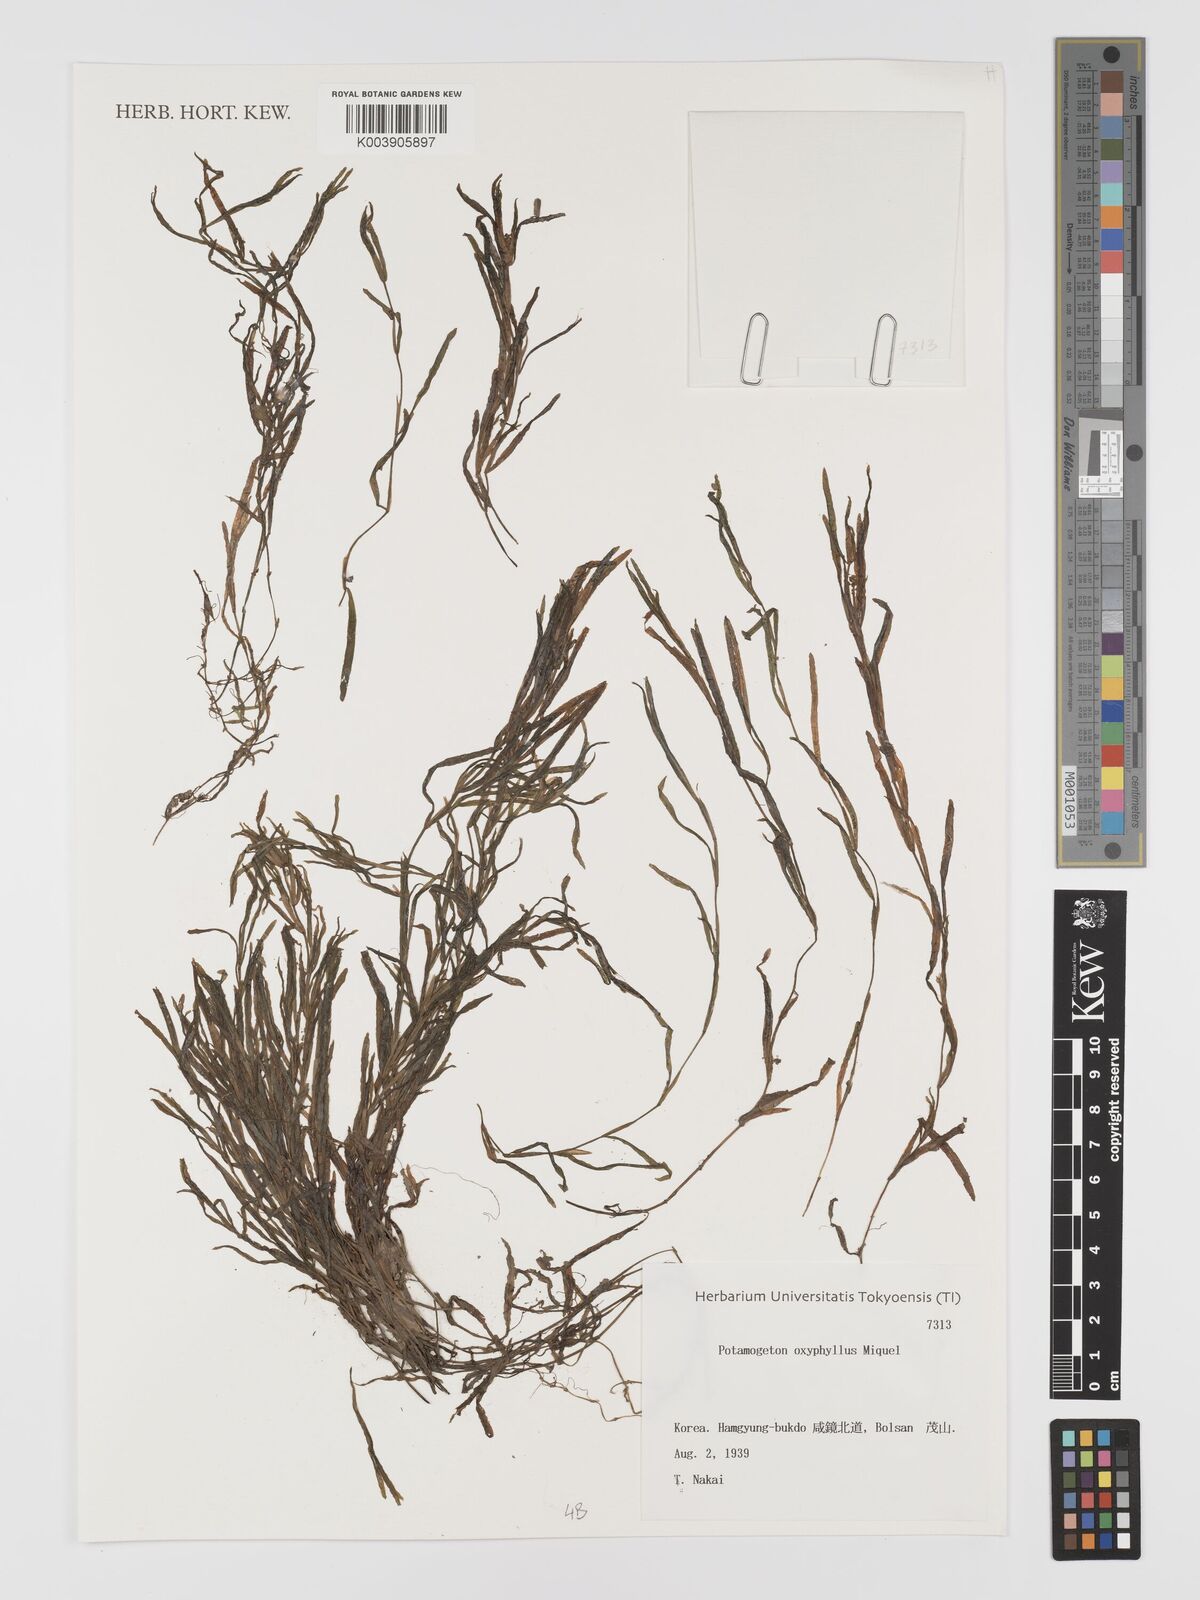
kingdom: Plantae
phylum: Tracheophyta
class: Liliopsida
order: Alismatales
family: Potamogetonaceae
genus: Potamogeton
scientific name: Potamogeton oxyphyllus
